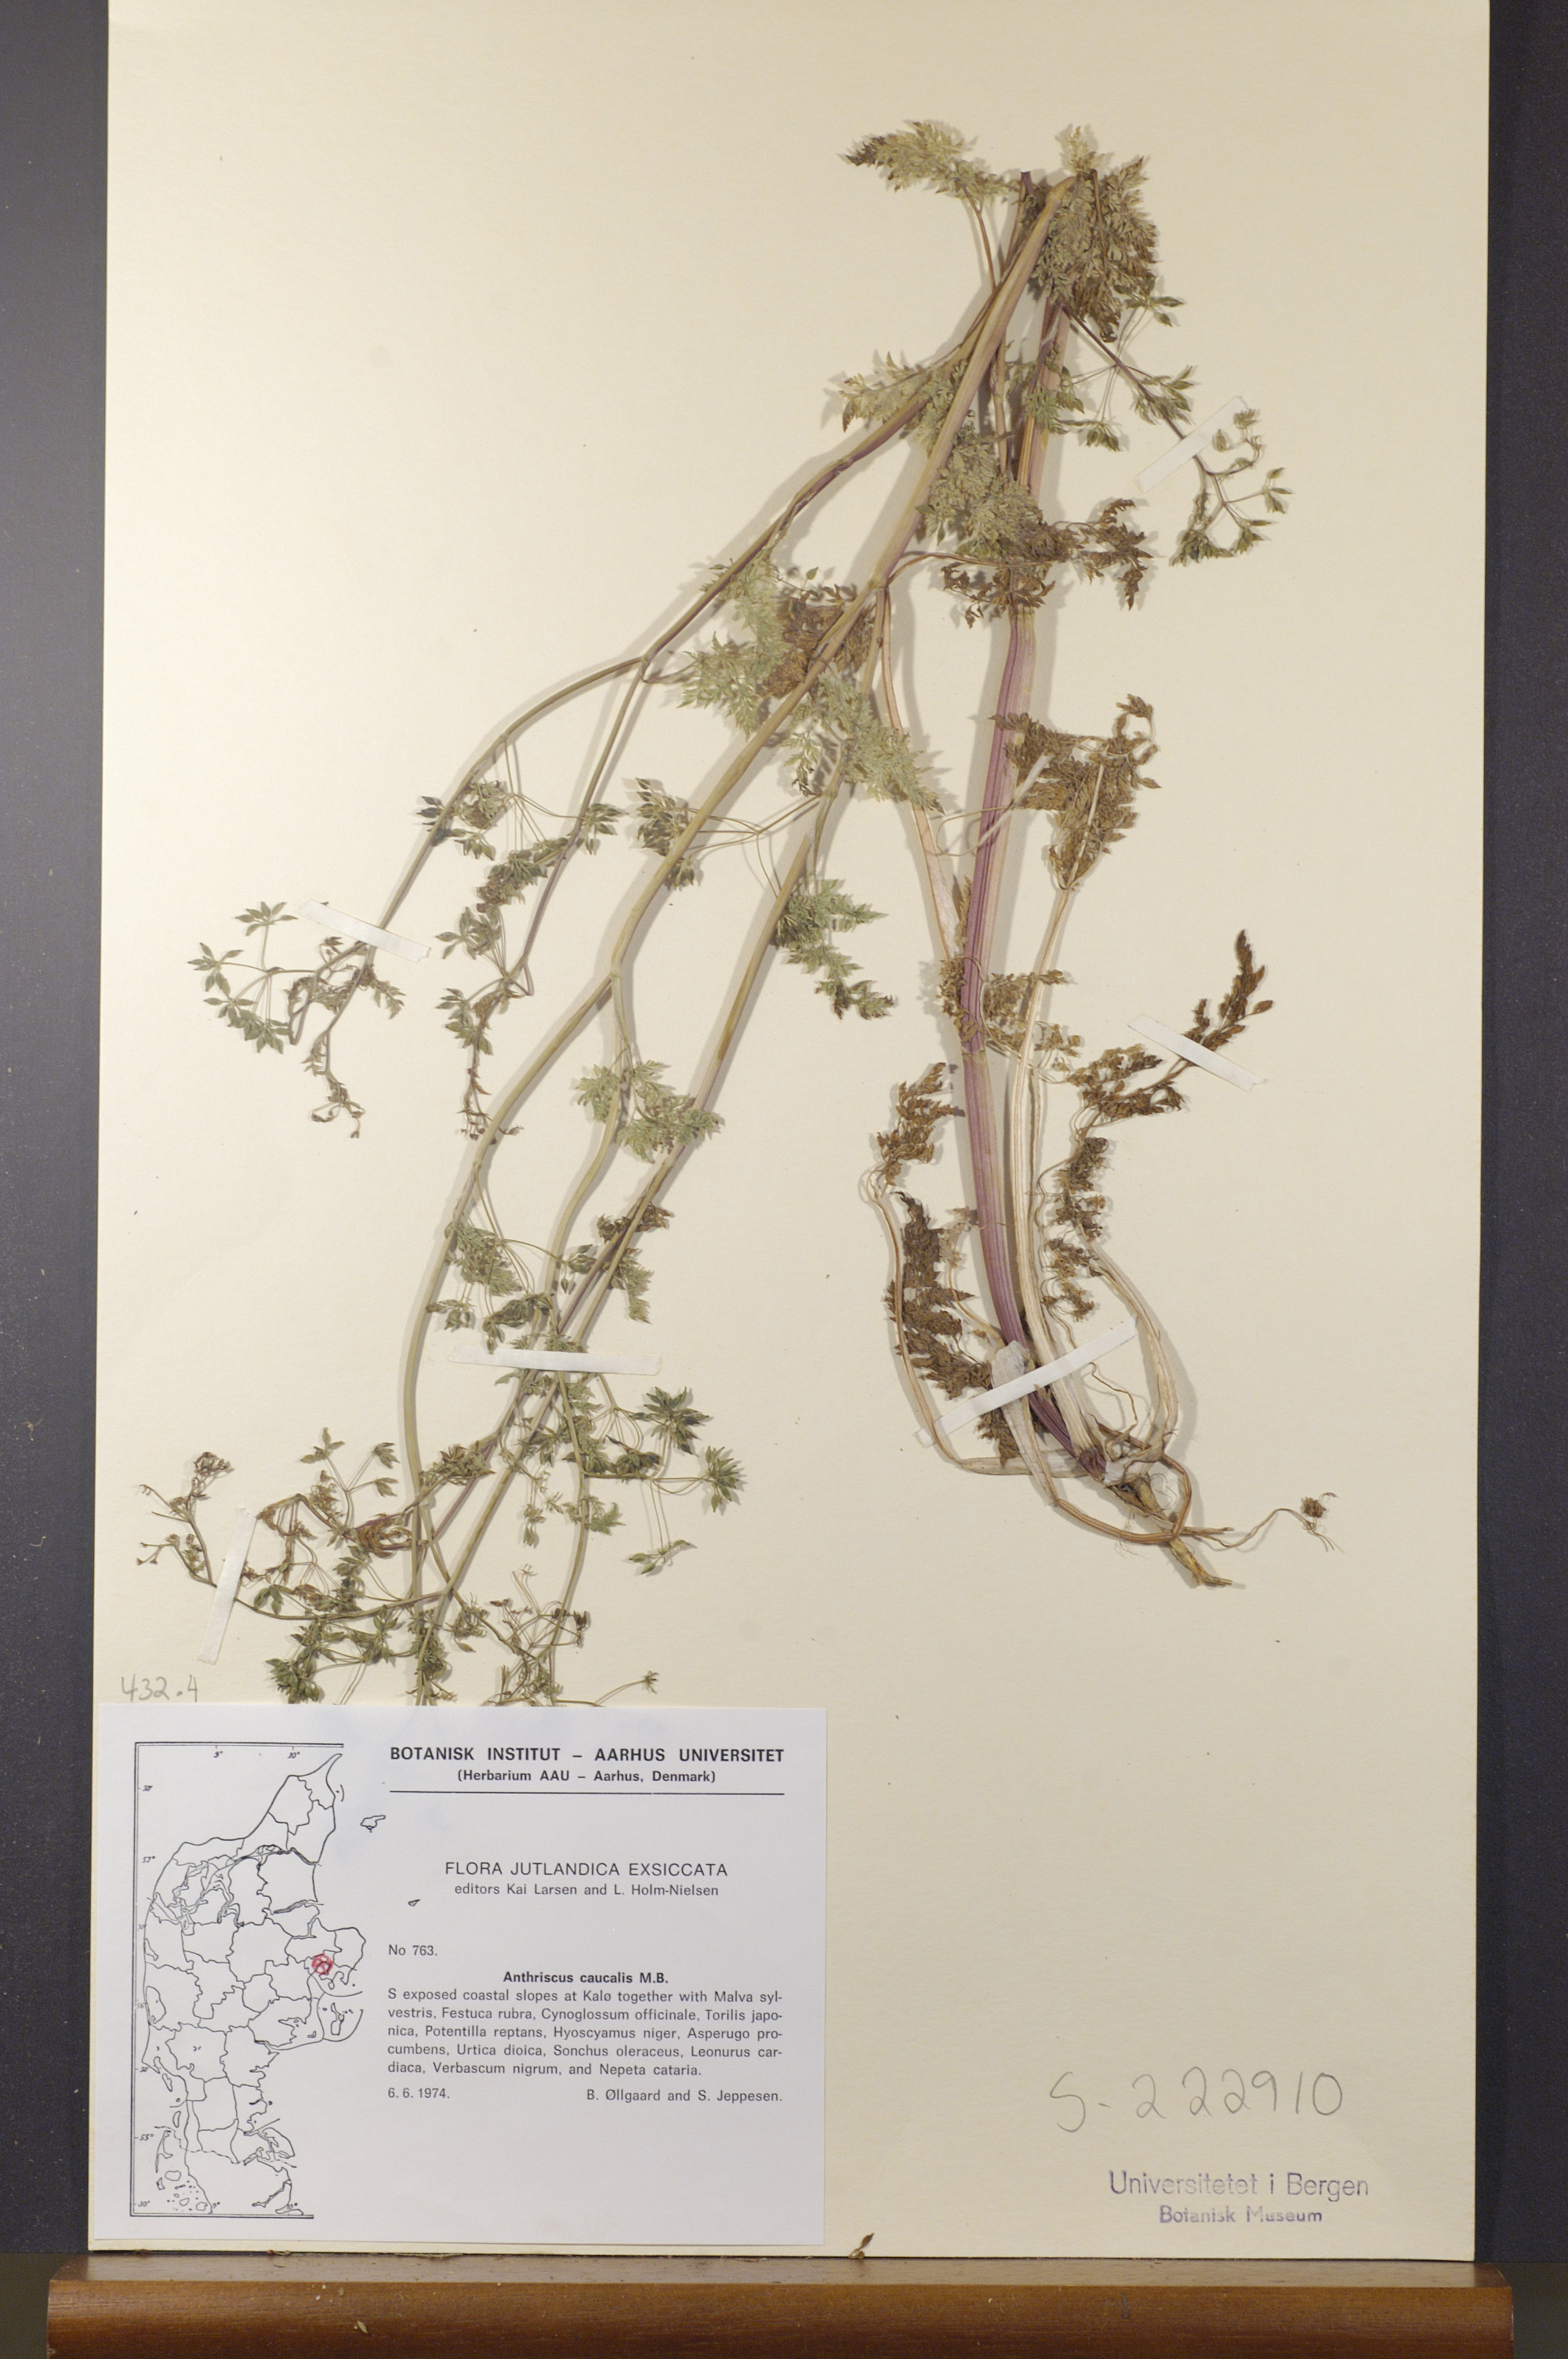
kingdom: Plantae
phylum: Tracheophyta
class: Magnoliopsida
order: Apiales
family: Apiaceae
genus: Anthriscus
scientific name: Anthriscus caucalis
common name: Bur chervil
